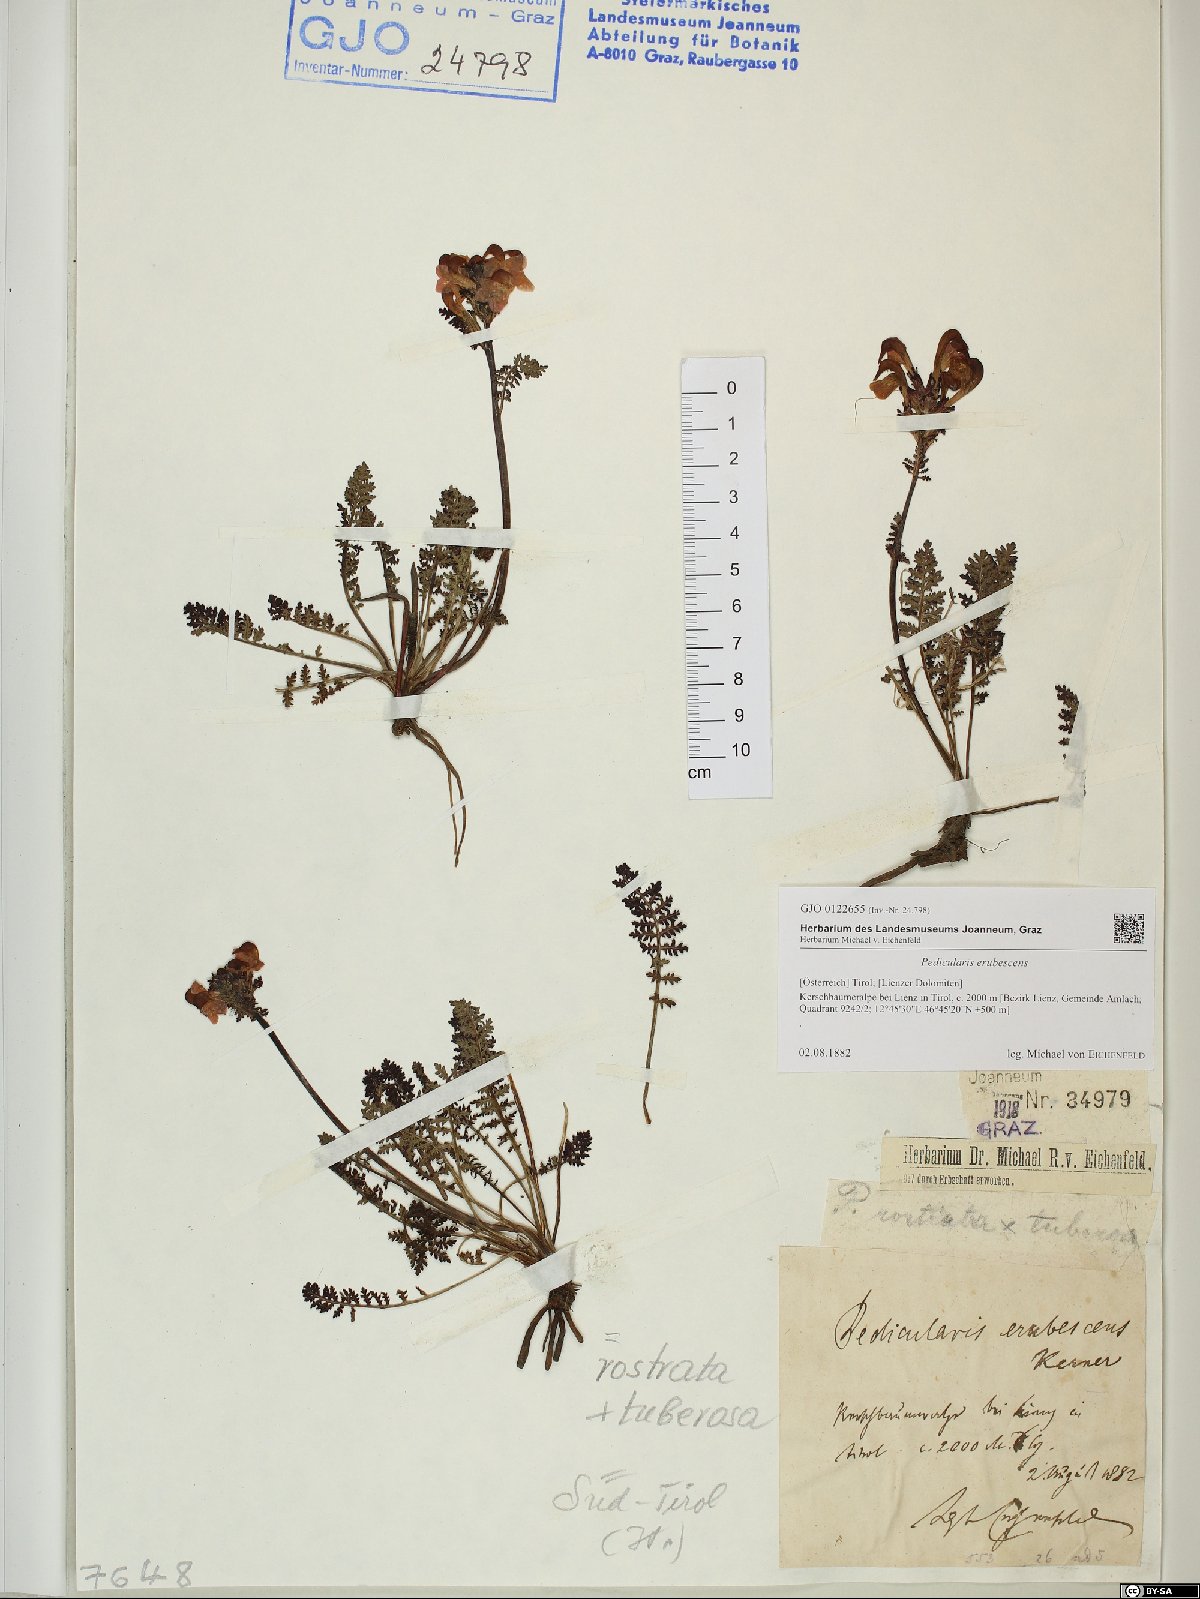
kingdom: Plantae
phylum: Tracheophyta
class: Magnoliopsida
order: Lamiales
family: Scrophulariaceae
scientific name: Scrophulariaceae
